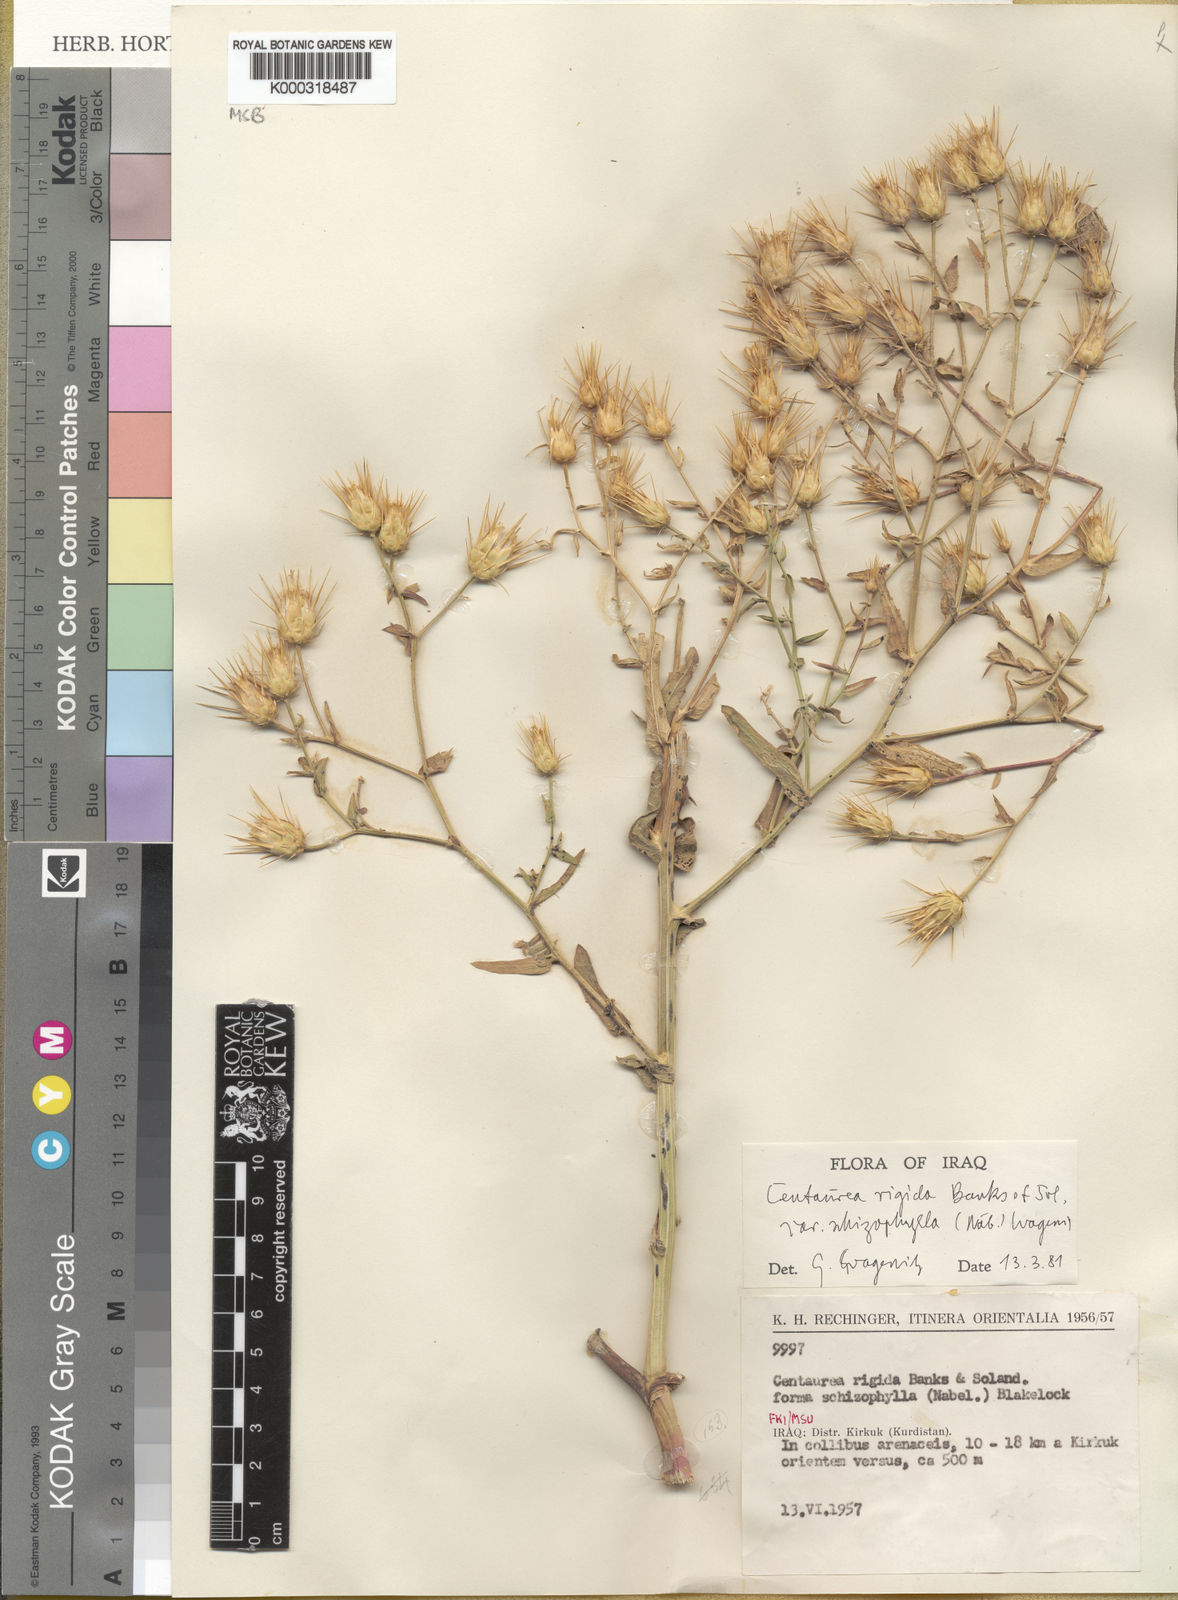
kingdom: Plantae
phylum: Tracheophyta
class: Magnoliopsida
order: Asterales
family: Asteraceae
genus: Centaurea
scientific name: Centaurea rigida
